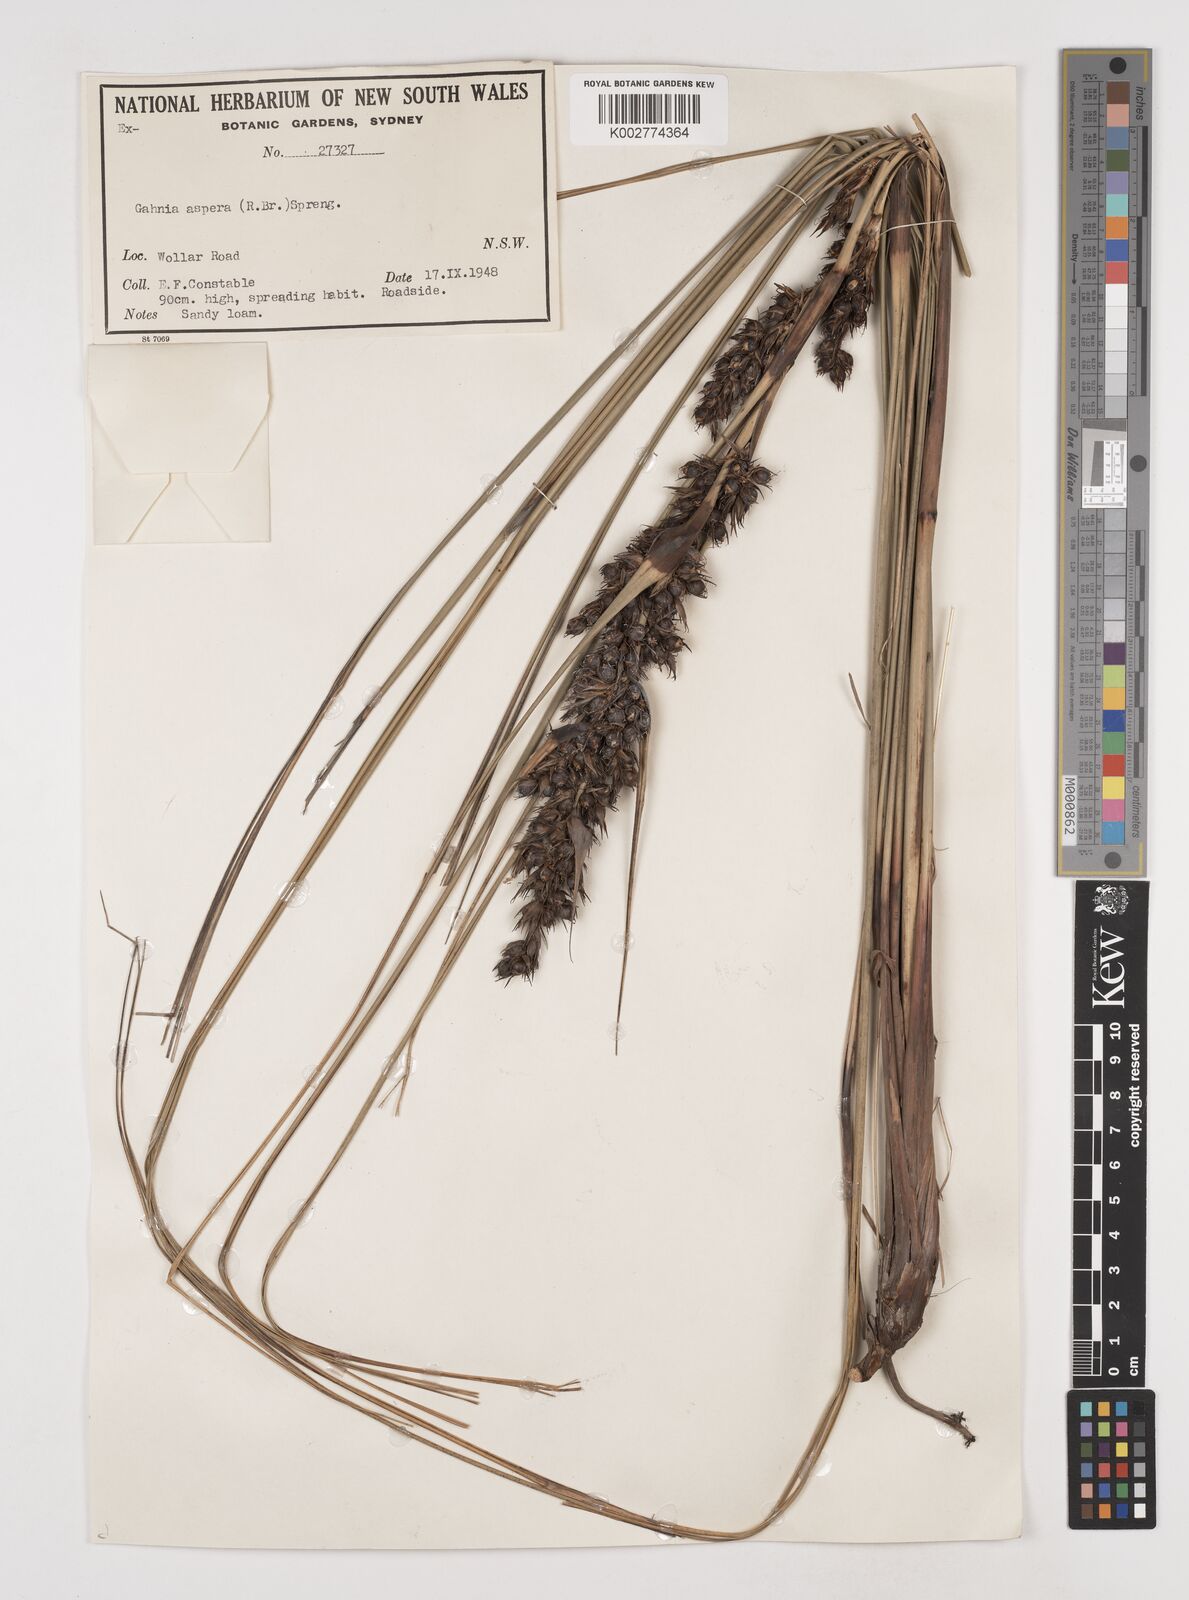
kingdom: Plantae
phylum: Tracheophyta
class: Liliopsida
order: Poales
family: Cyperaceae
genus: Gahnia
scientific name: Gahnia aspera
